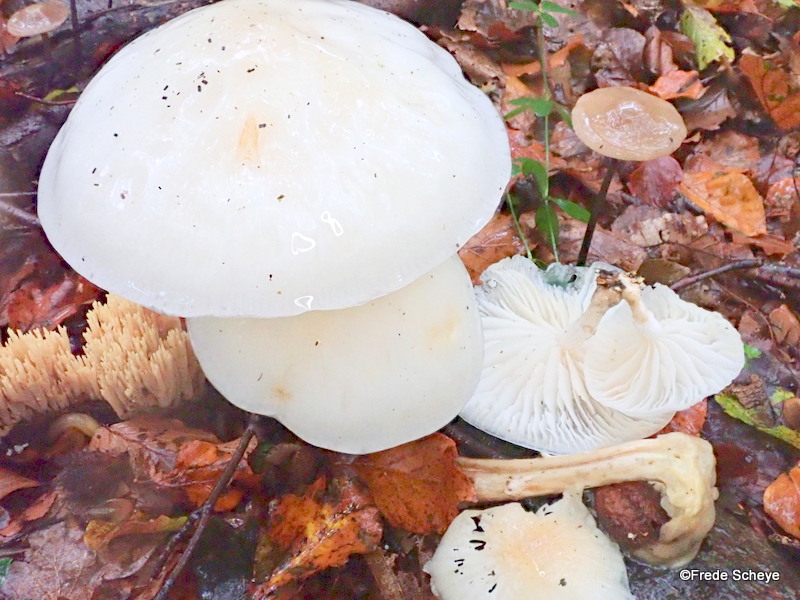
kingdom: Fungi
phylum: Basidiomycota
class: Agaricomycetes
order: Agaricales
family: Physalacriaceae
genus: Mucidula
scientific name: Mucidula mucida
